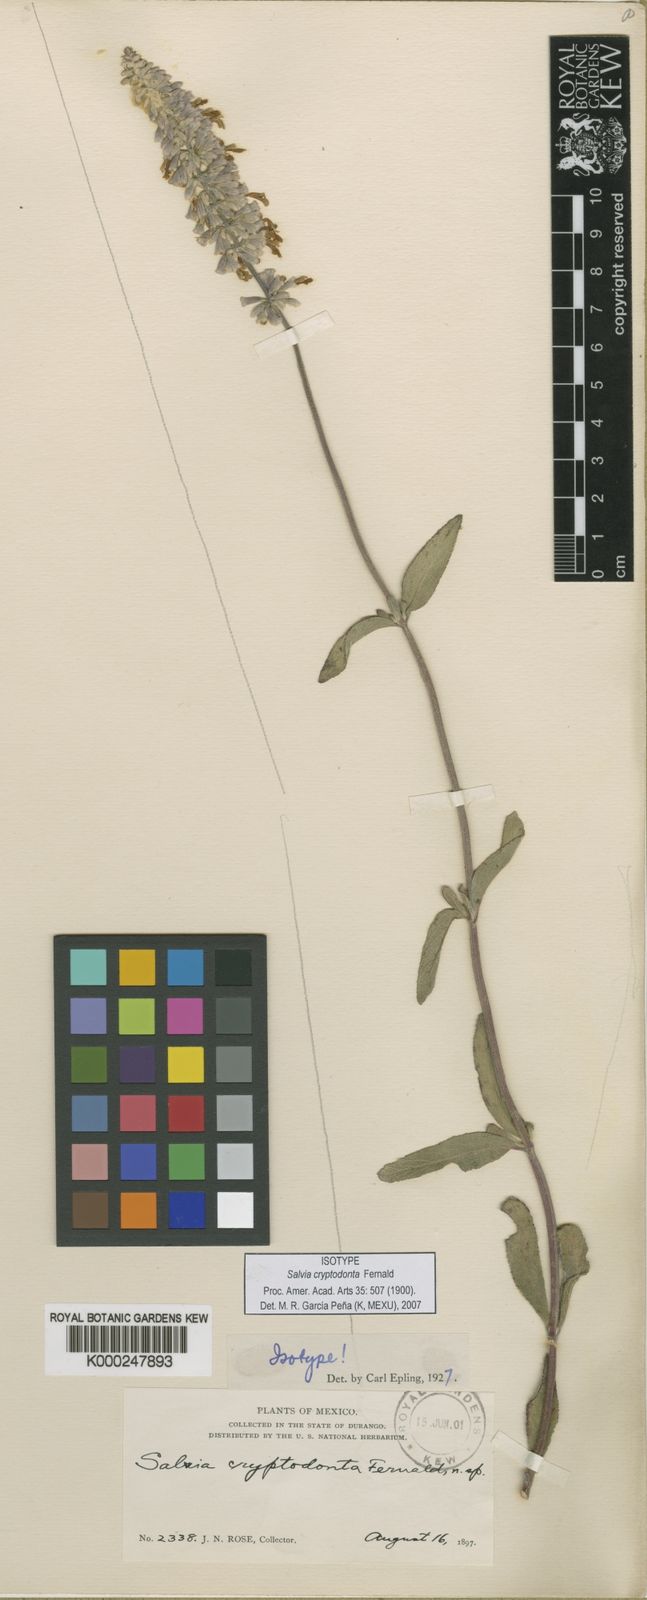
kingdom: Plantae
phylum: Tracheophyta
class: Magnoliopsida
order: Lamiales
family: Lamiaceae
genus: Salvia
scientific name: Salvia cryptodonta
